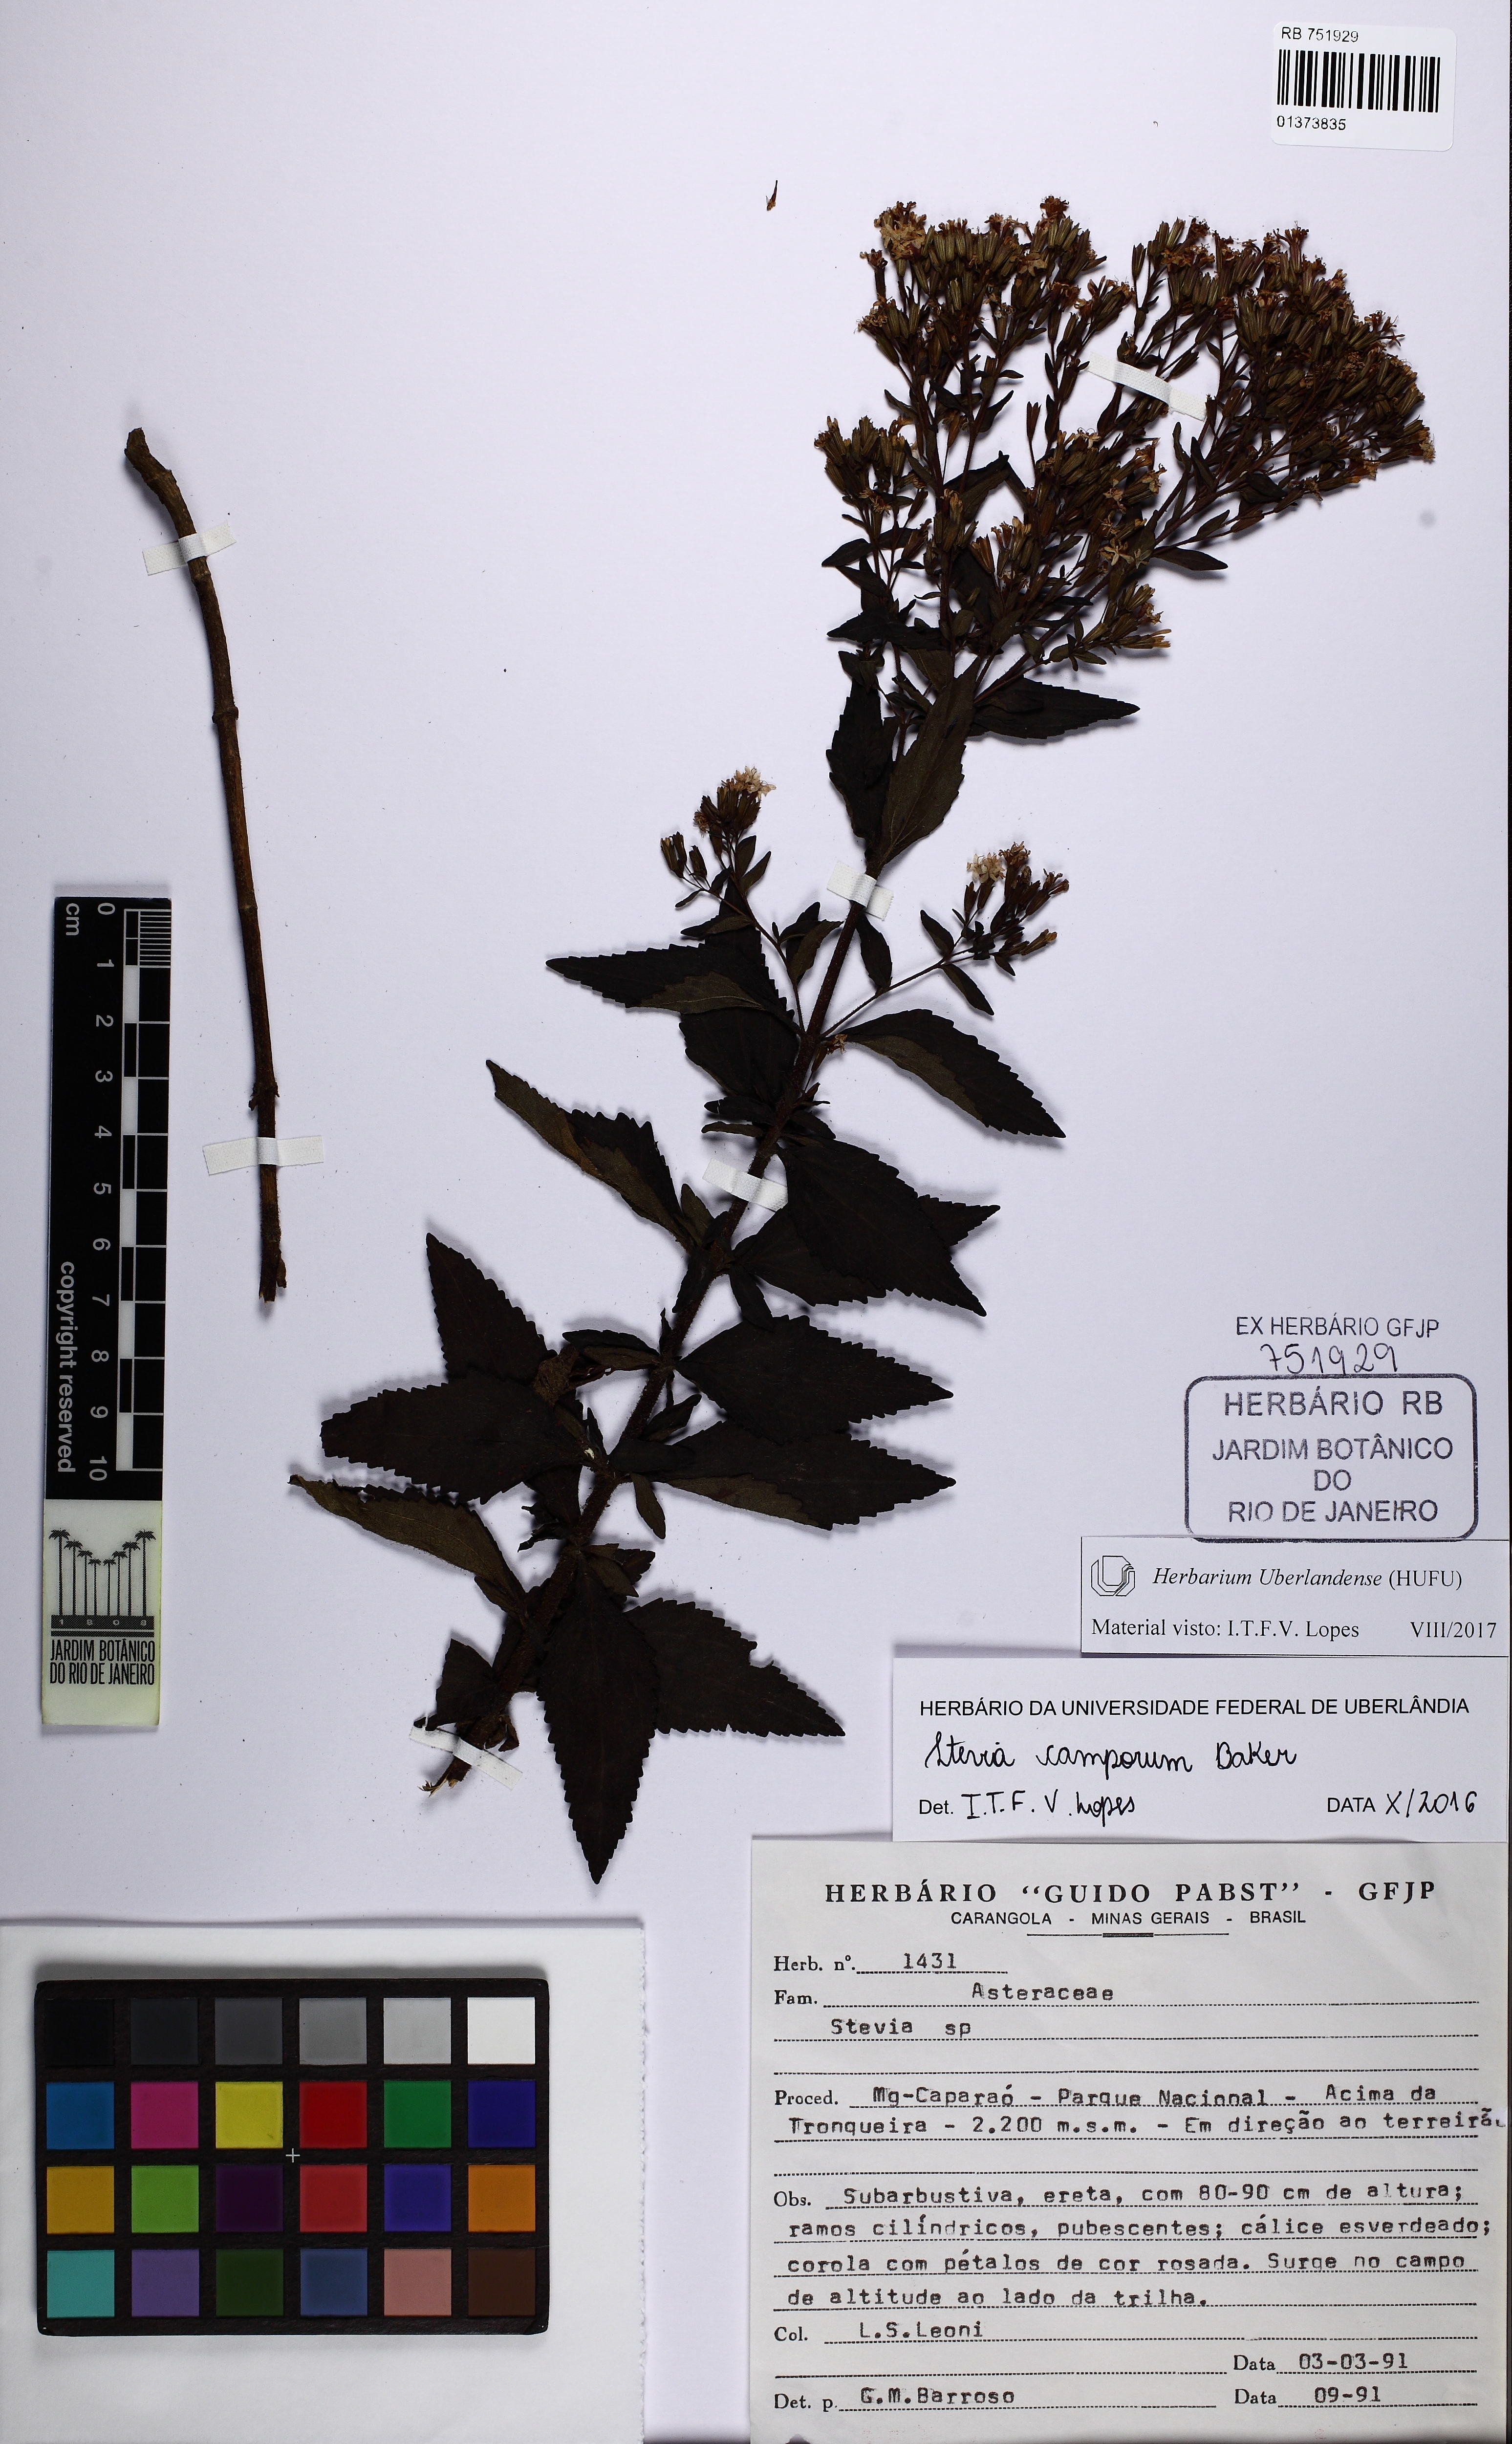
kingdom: Plantae
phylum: Tracheophyta
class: Magnoliopsida
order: Asterales
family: Asteraceae
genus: Stevia
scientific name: Stevia camporum
